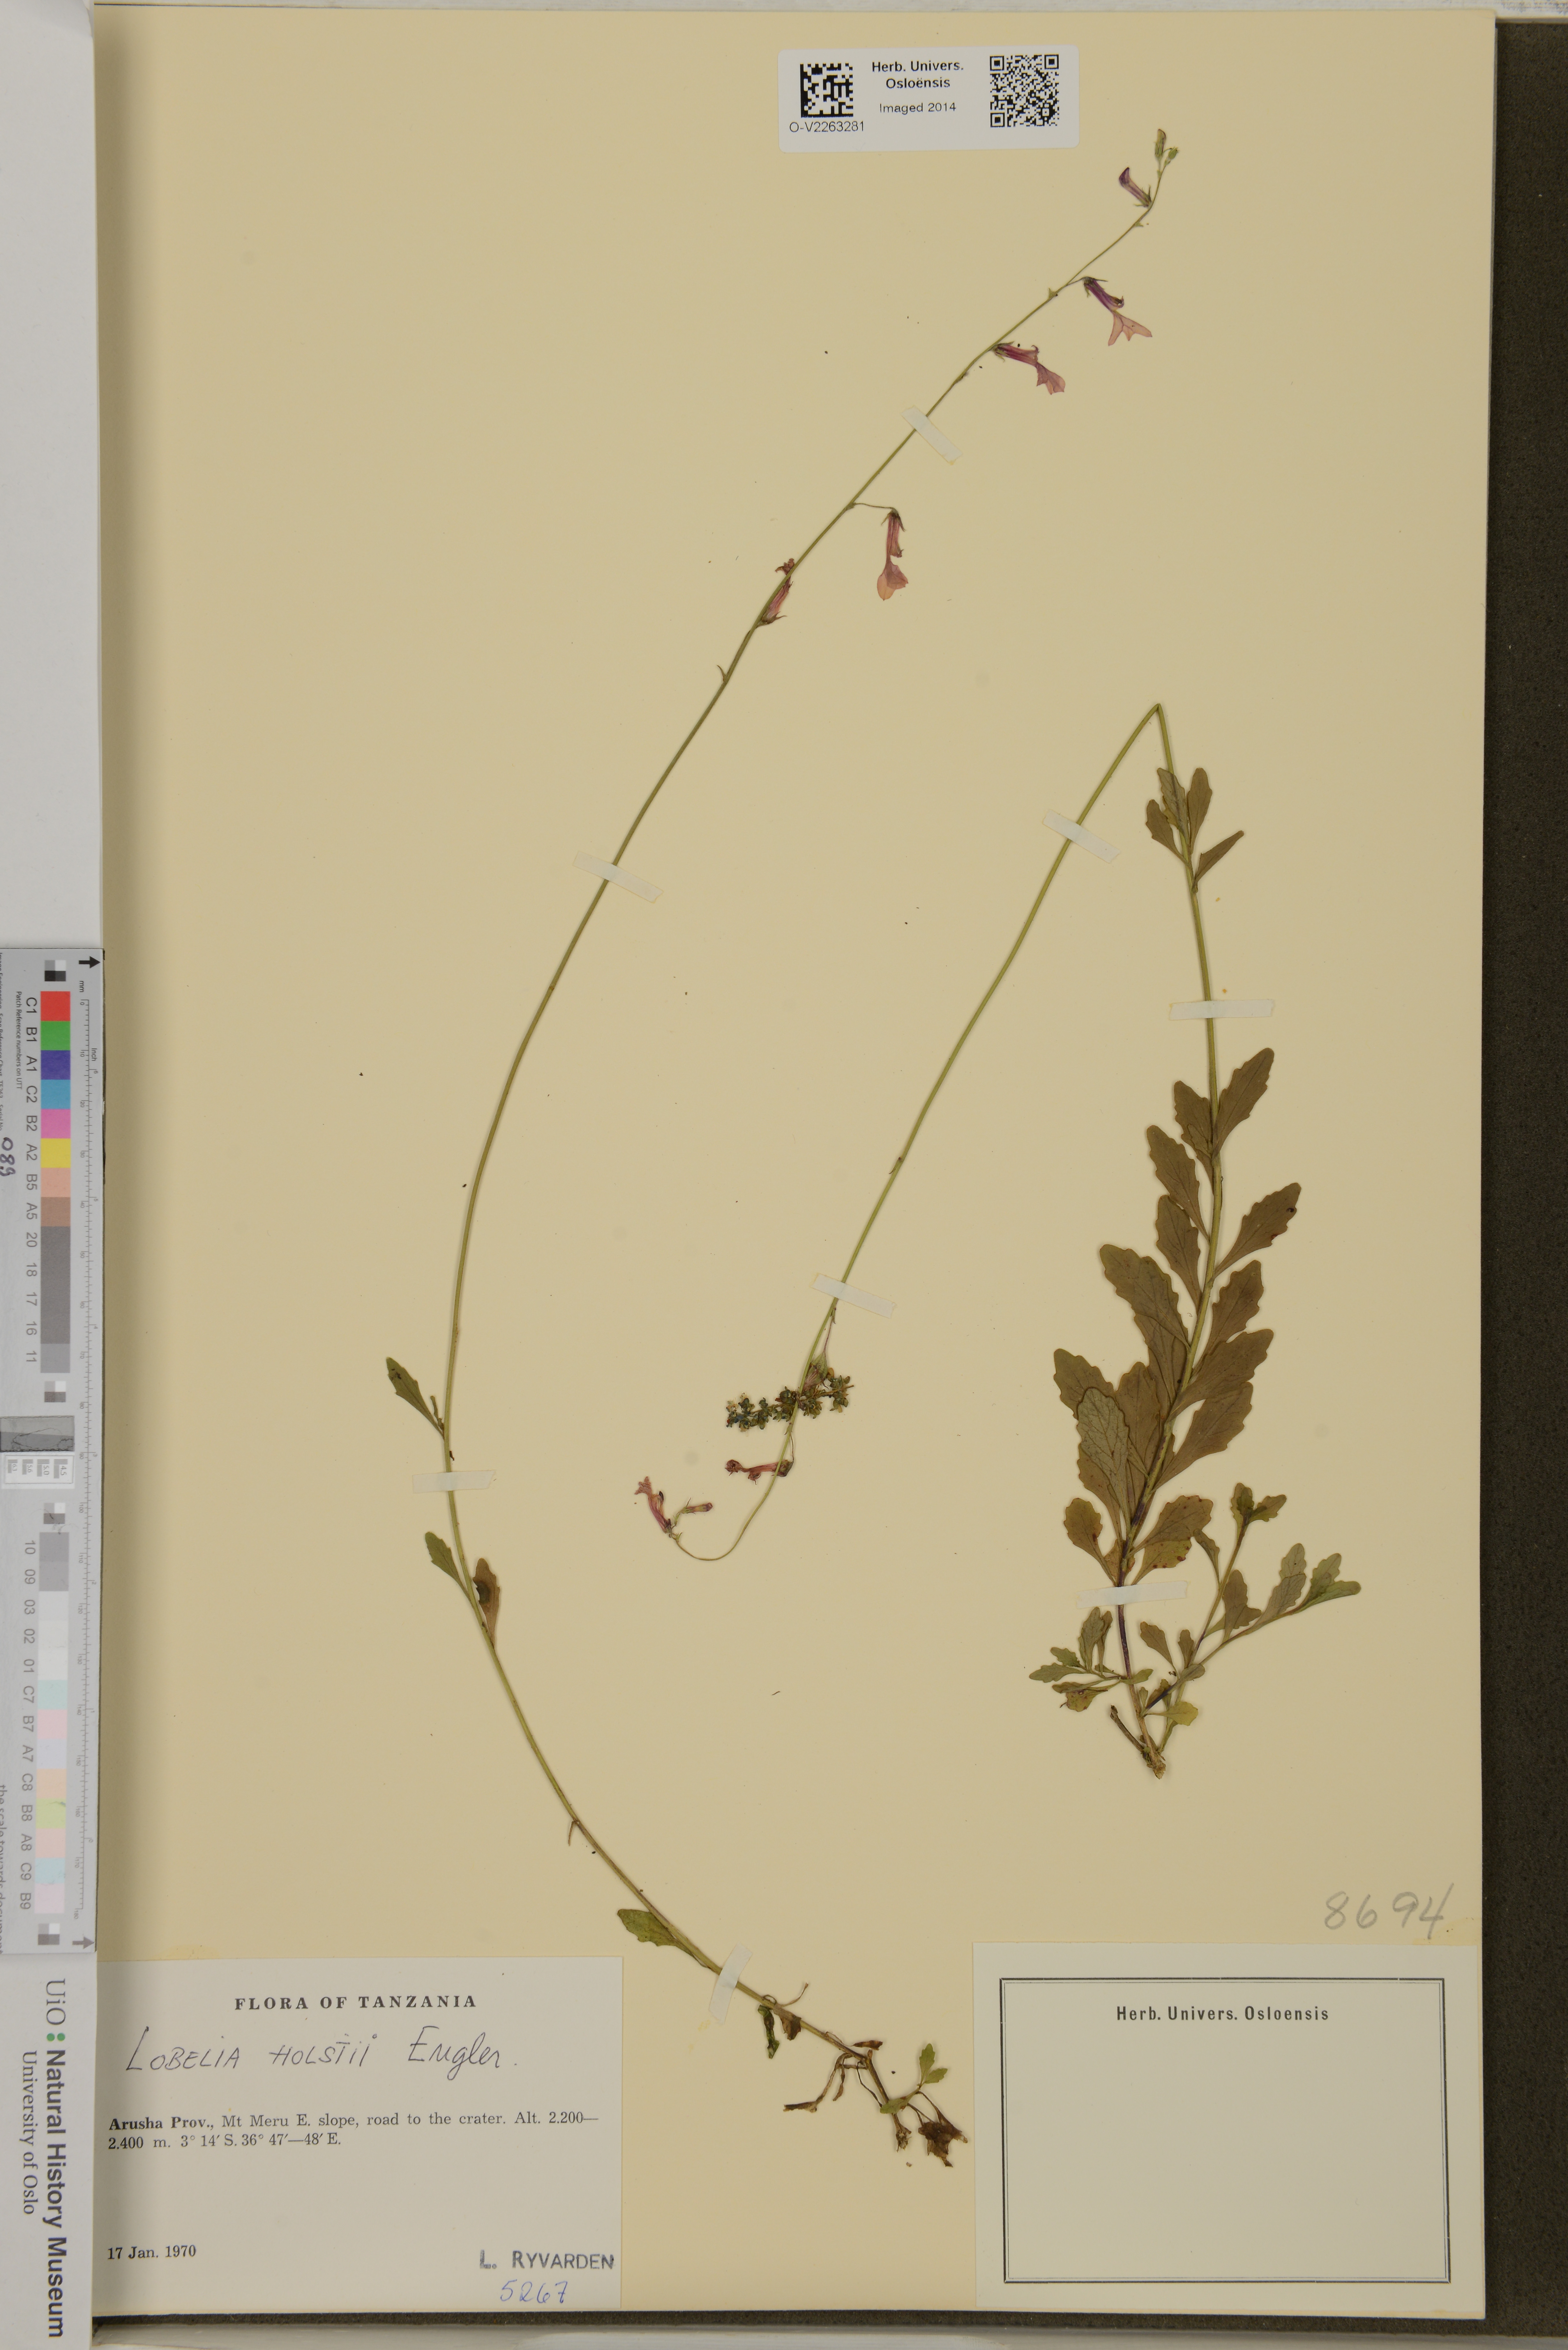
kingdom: Plantae
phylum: Tracheophyta
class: Magnoliopsida
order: Asterales
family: Campanulaceae
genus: Lobelia
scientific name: Lobelia holstii
